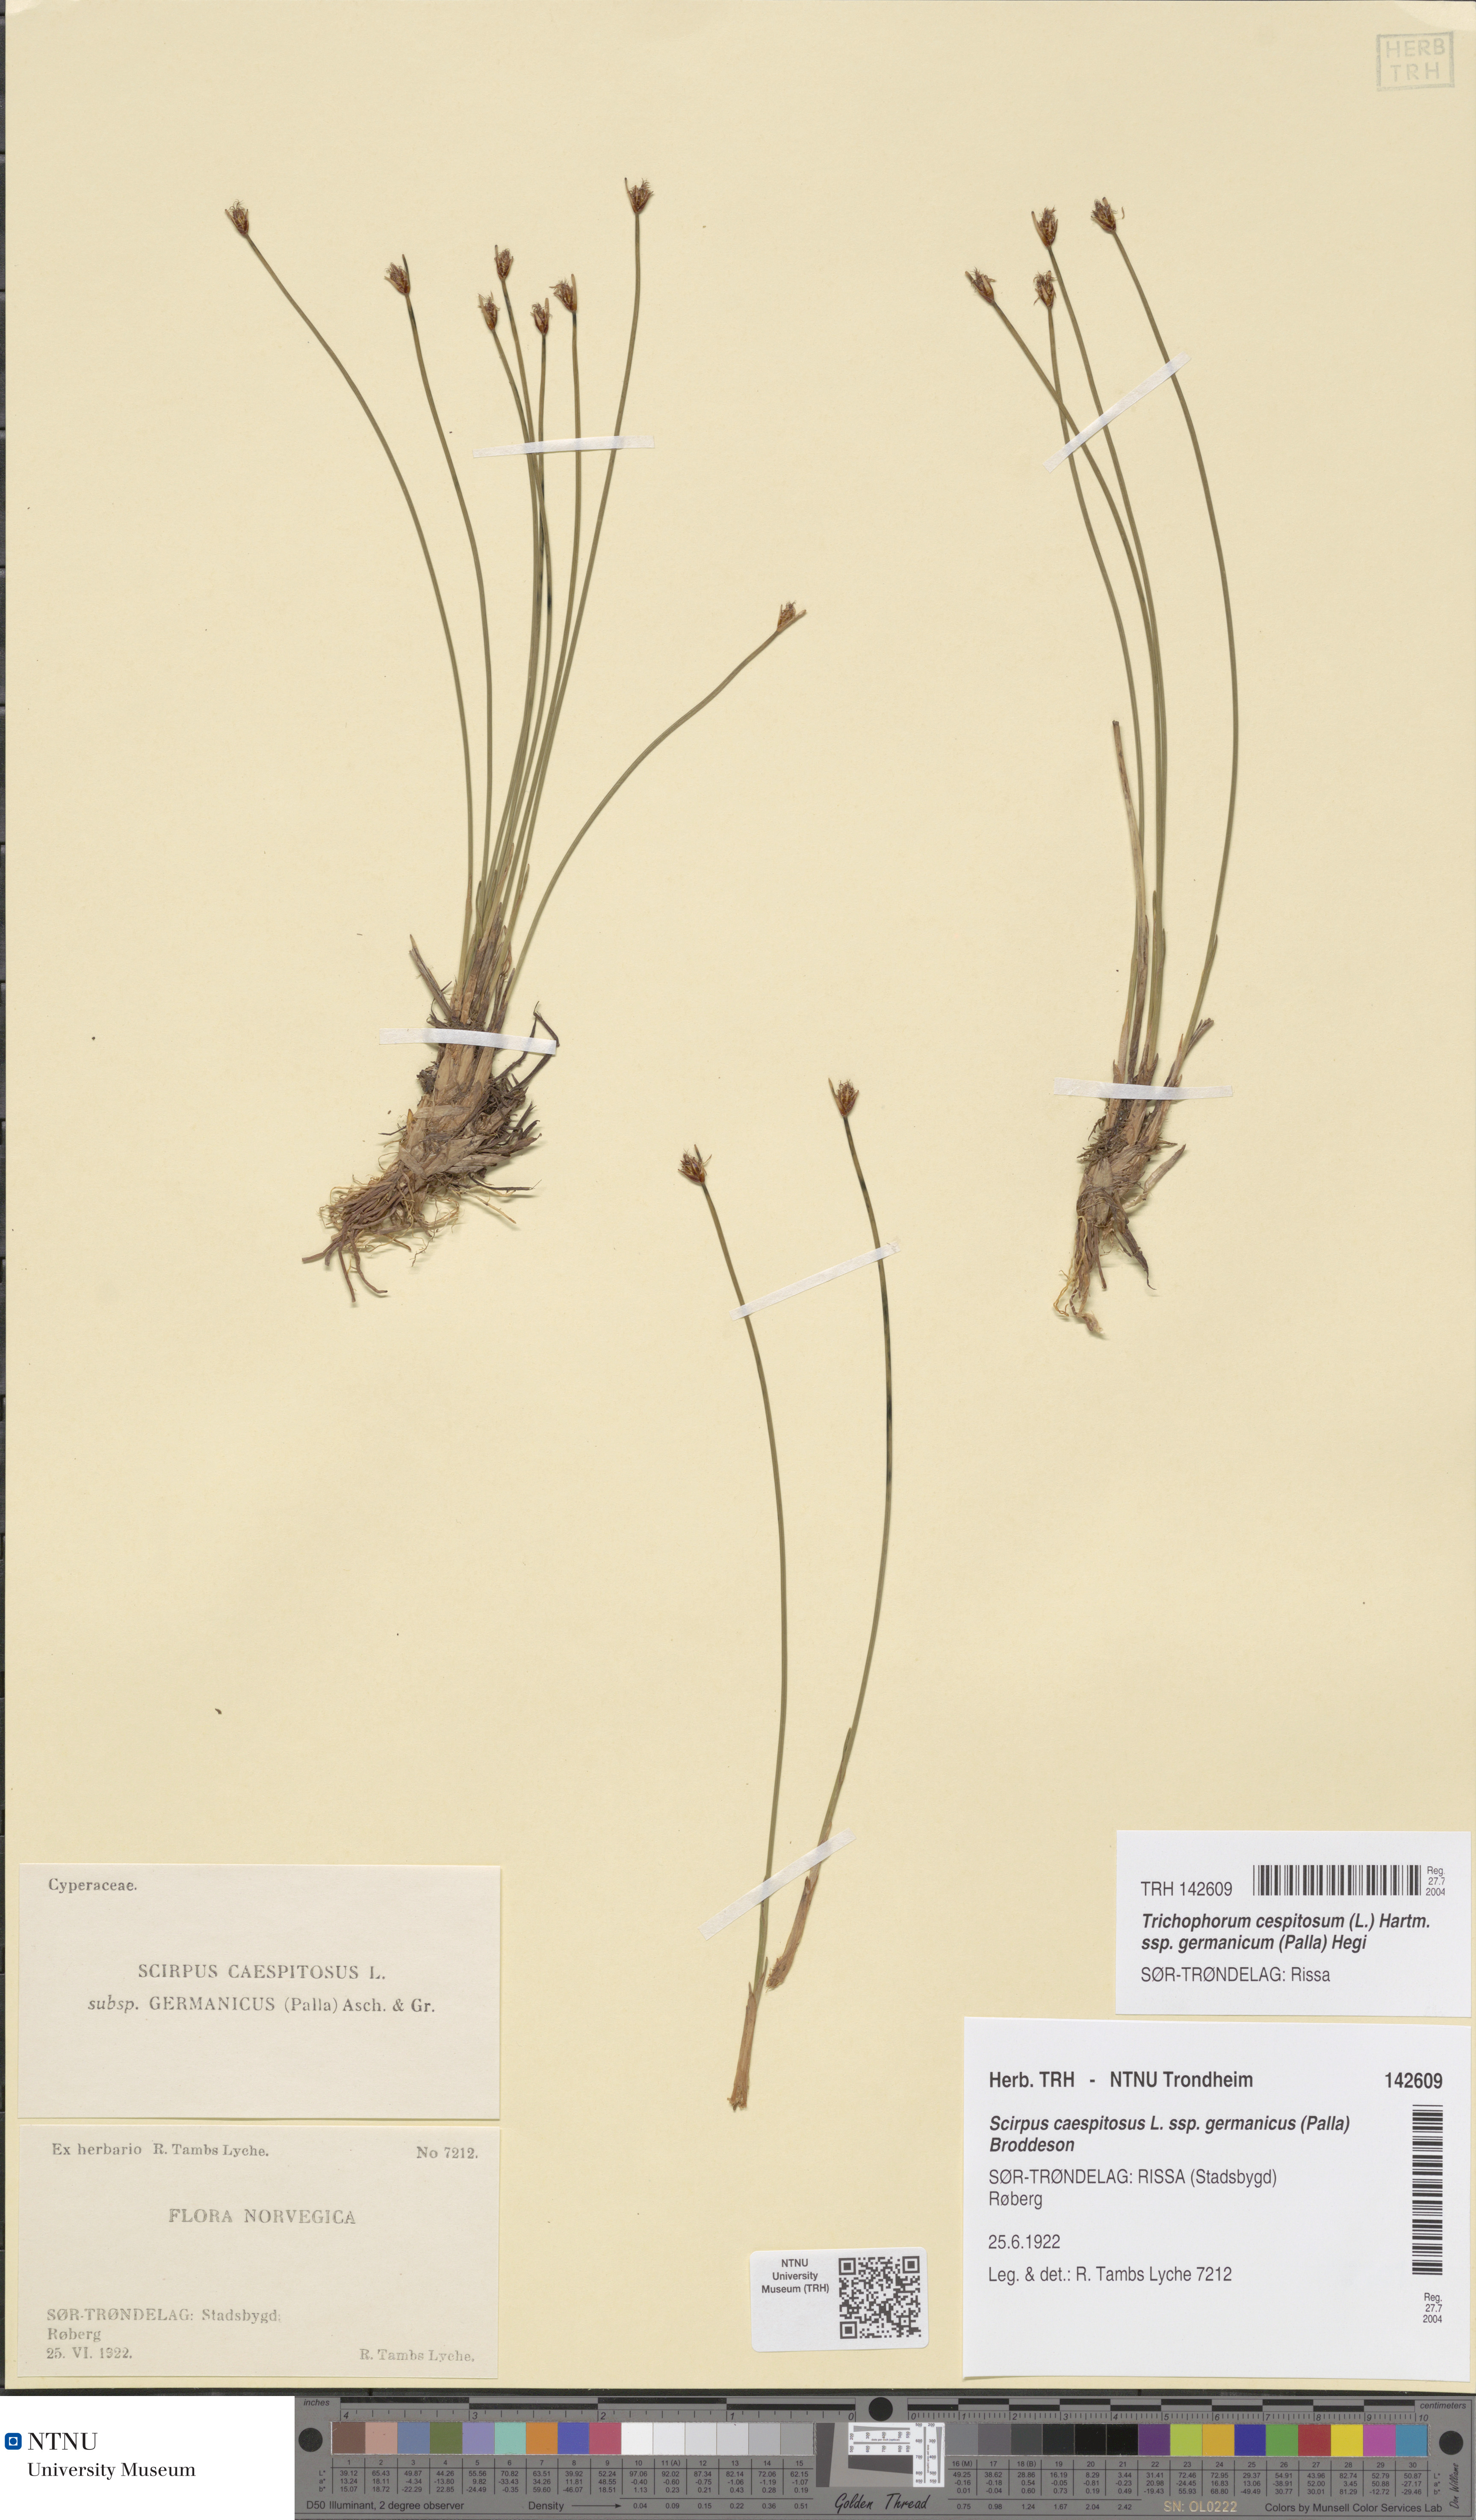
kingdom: Plantae
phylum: Tracheophyta
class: Liliopsida
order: Poales
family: Cyperaceae
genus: Trichophorum
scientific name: Trichophorum cespitosum
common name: Cespitose bulrush
